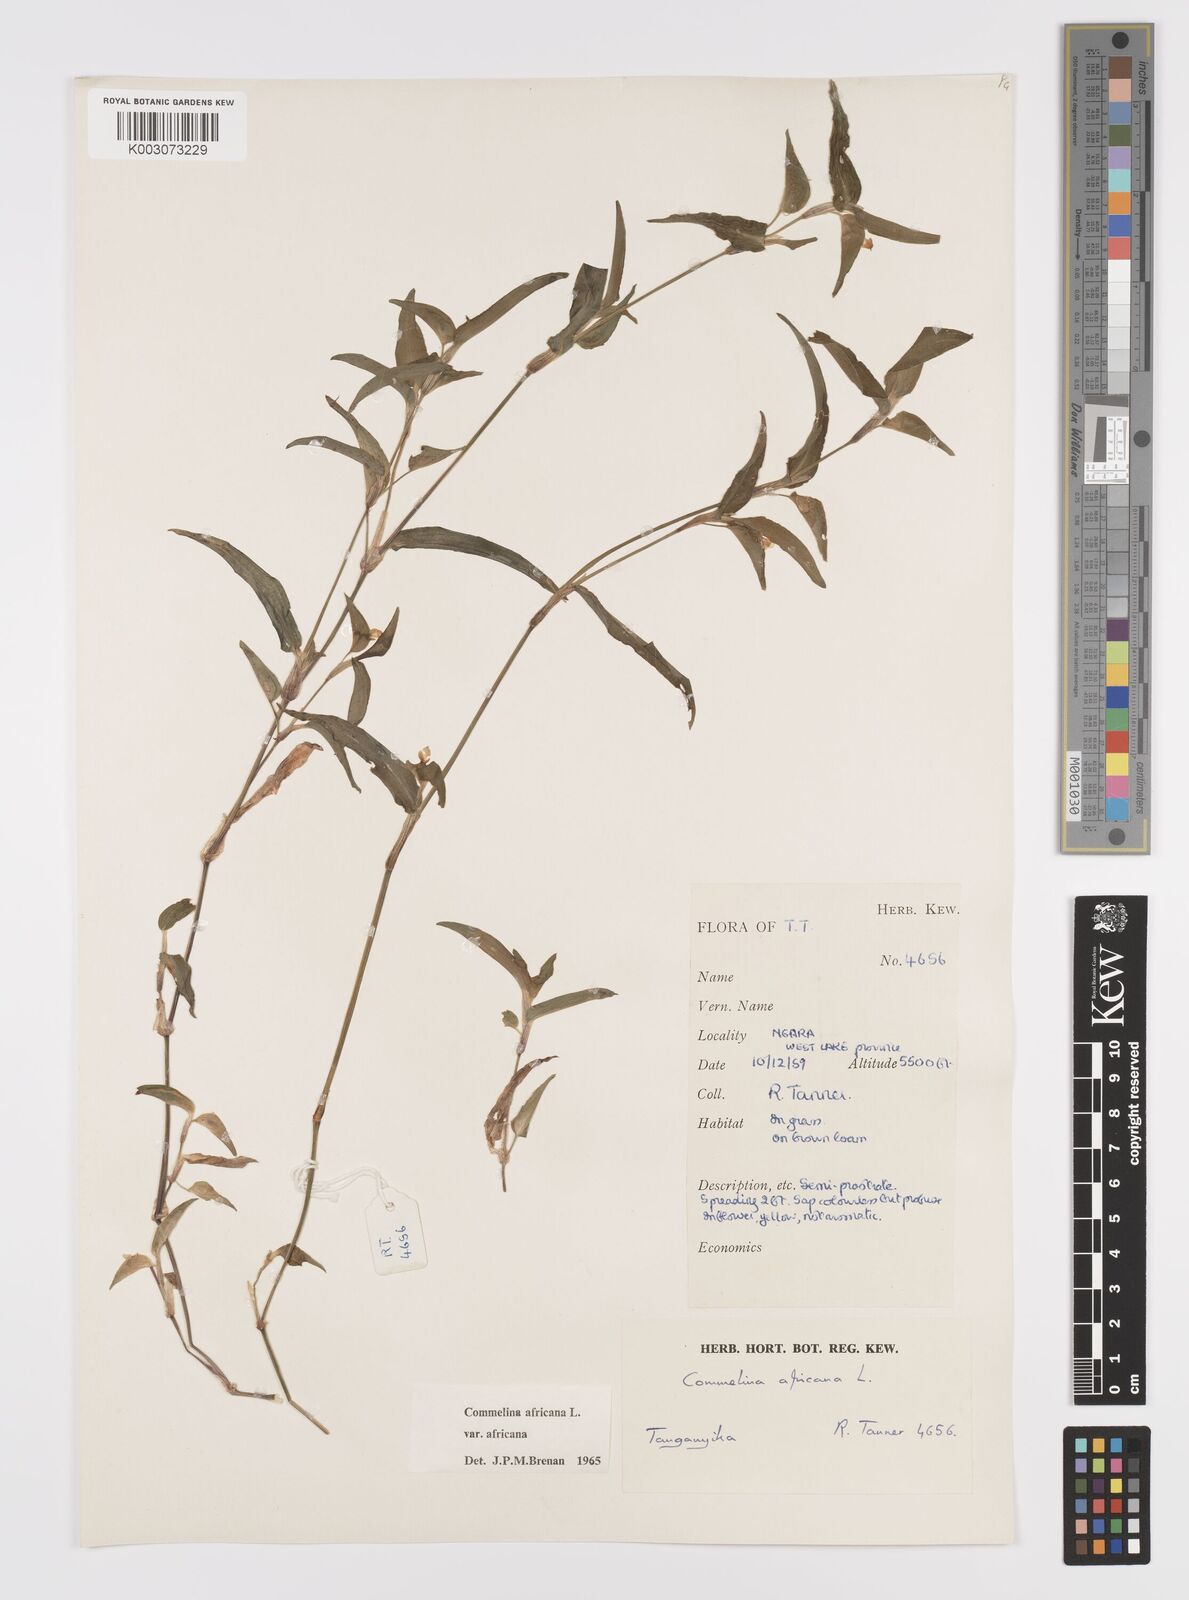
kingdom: Plantae
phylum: Tracheophyta
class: Liliopsida
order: Commelinales
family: Commelinaceae
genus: Commelina
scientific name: Commelina africana
